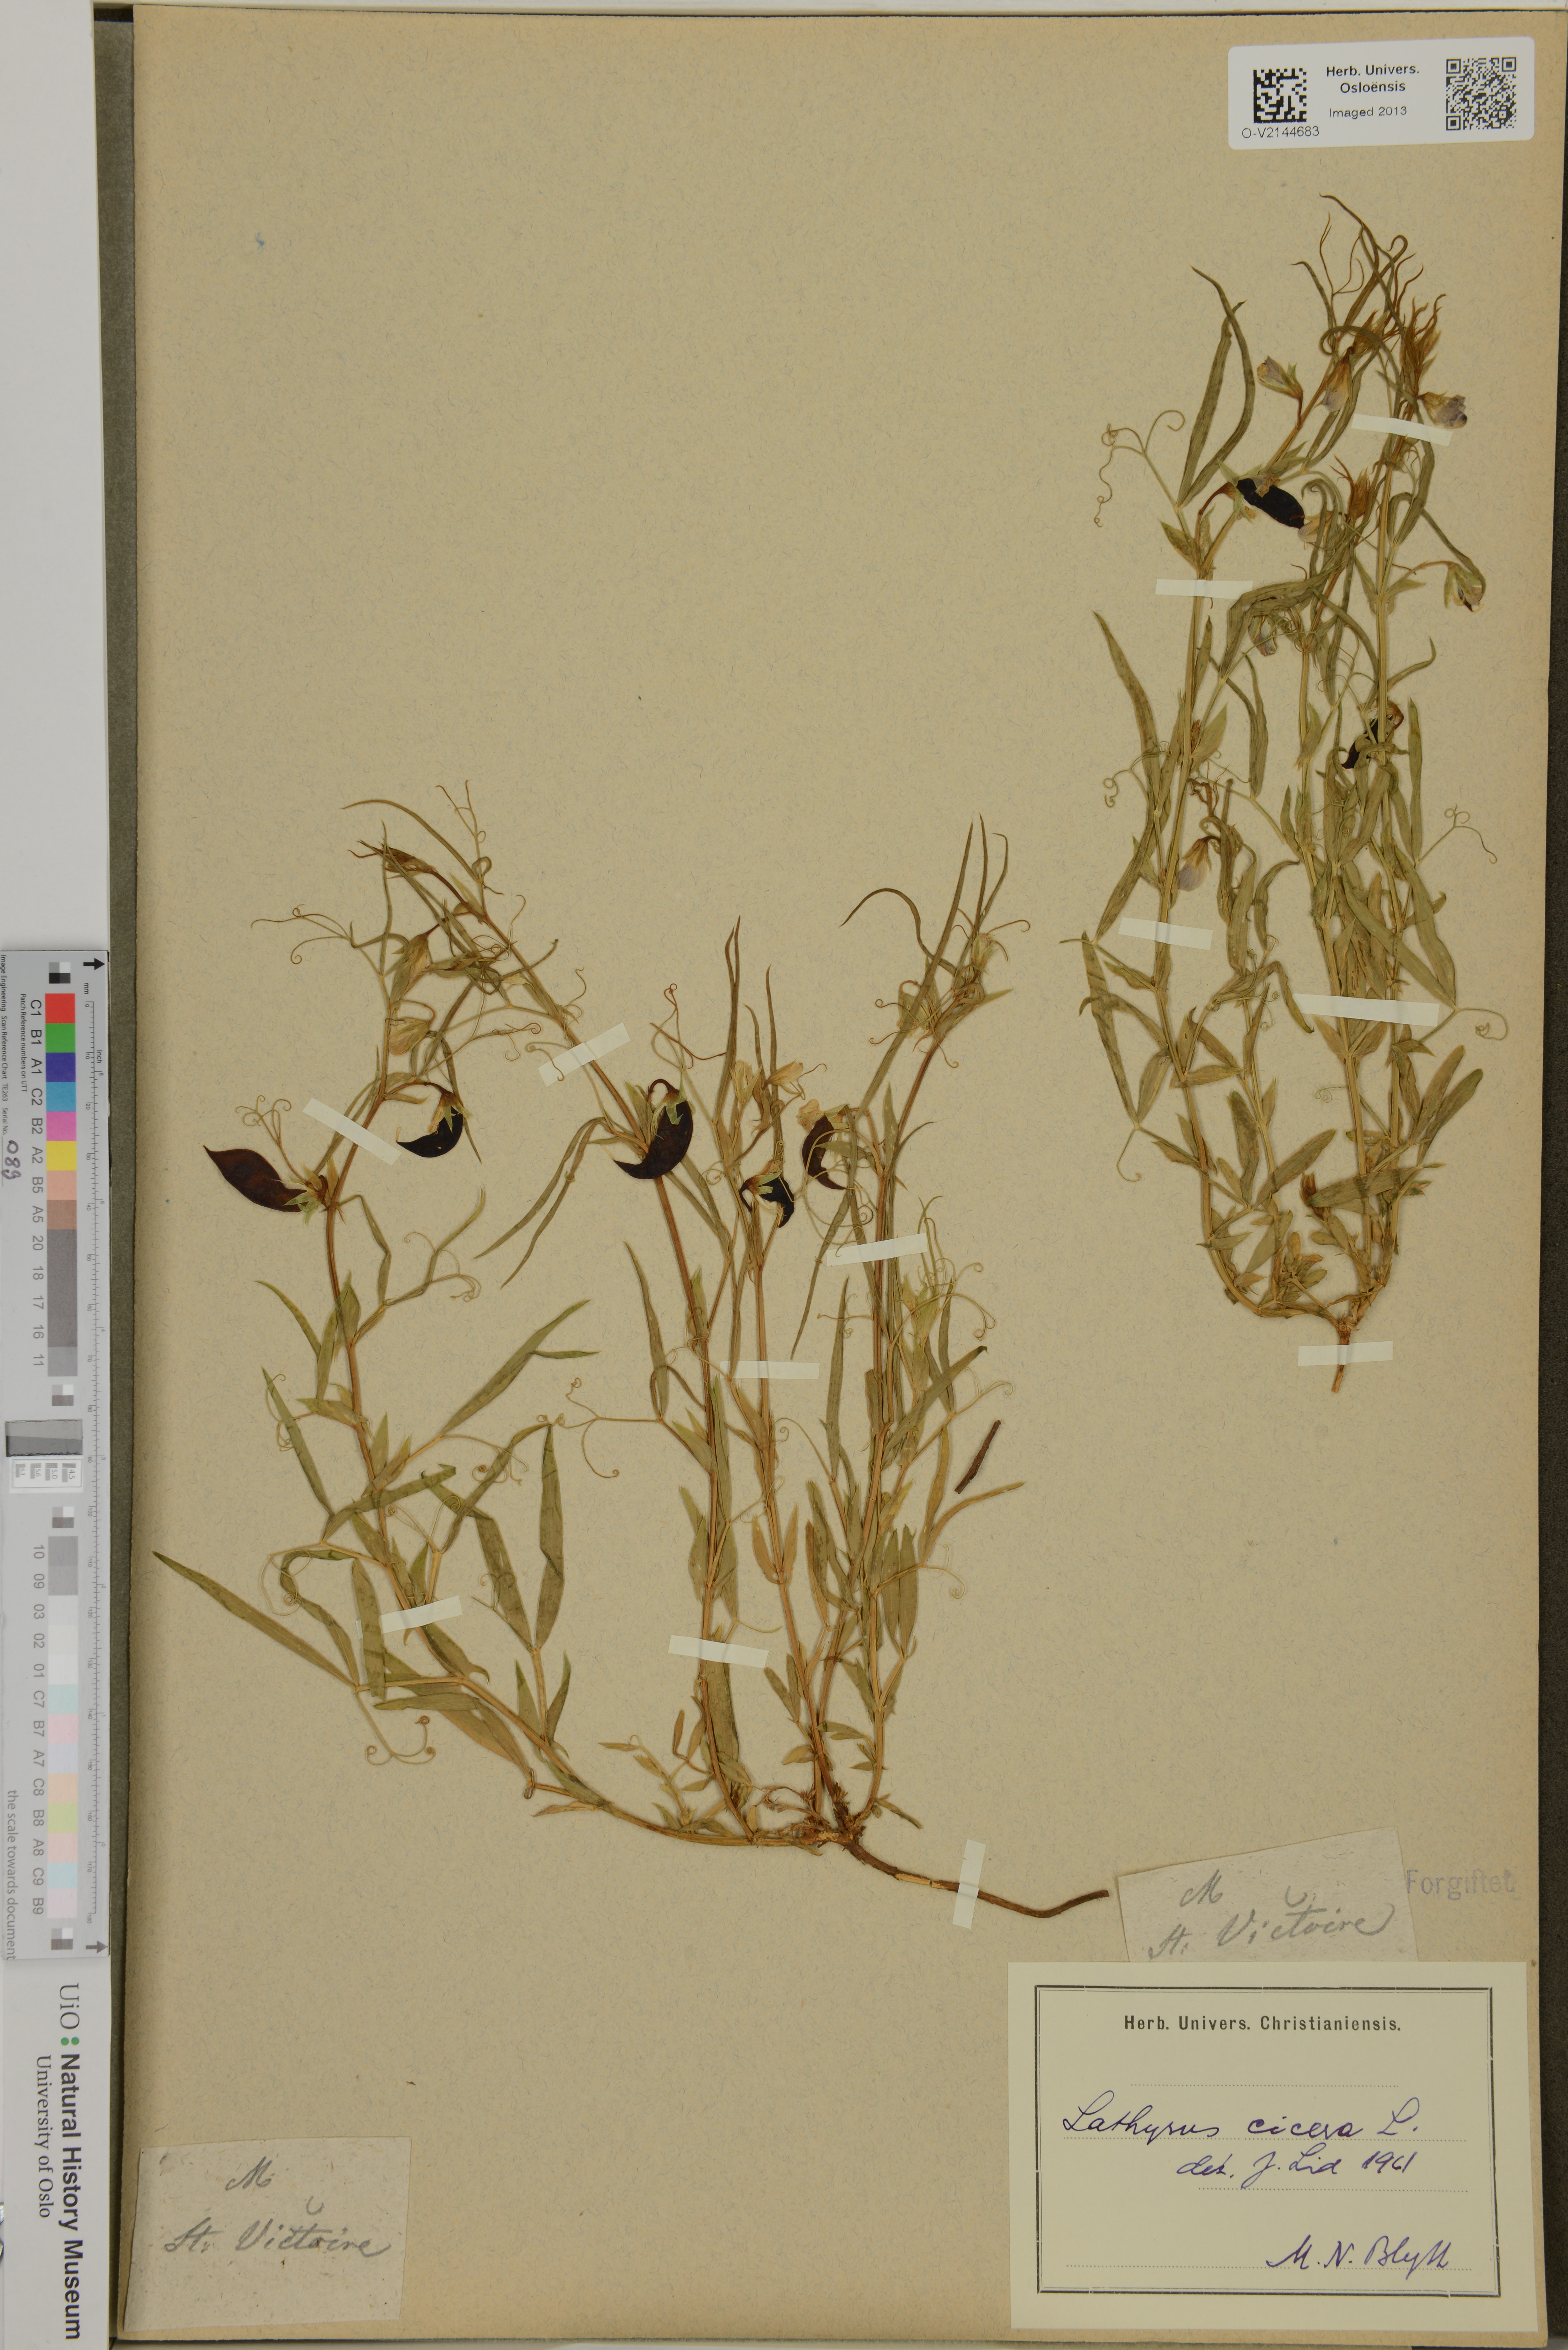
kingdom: Plantae
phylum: Tracheophyta
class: Magnoliopsida
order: Fabales
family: Fabaceae
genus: Lathyrus
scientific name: Lathyrus cicera
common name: Red vetchling
